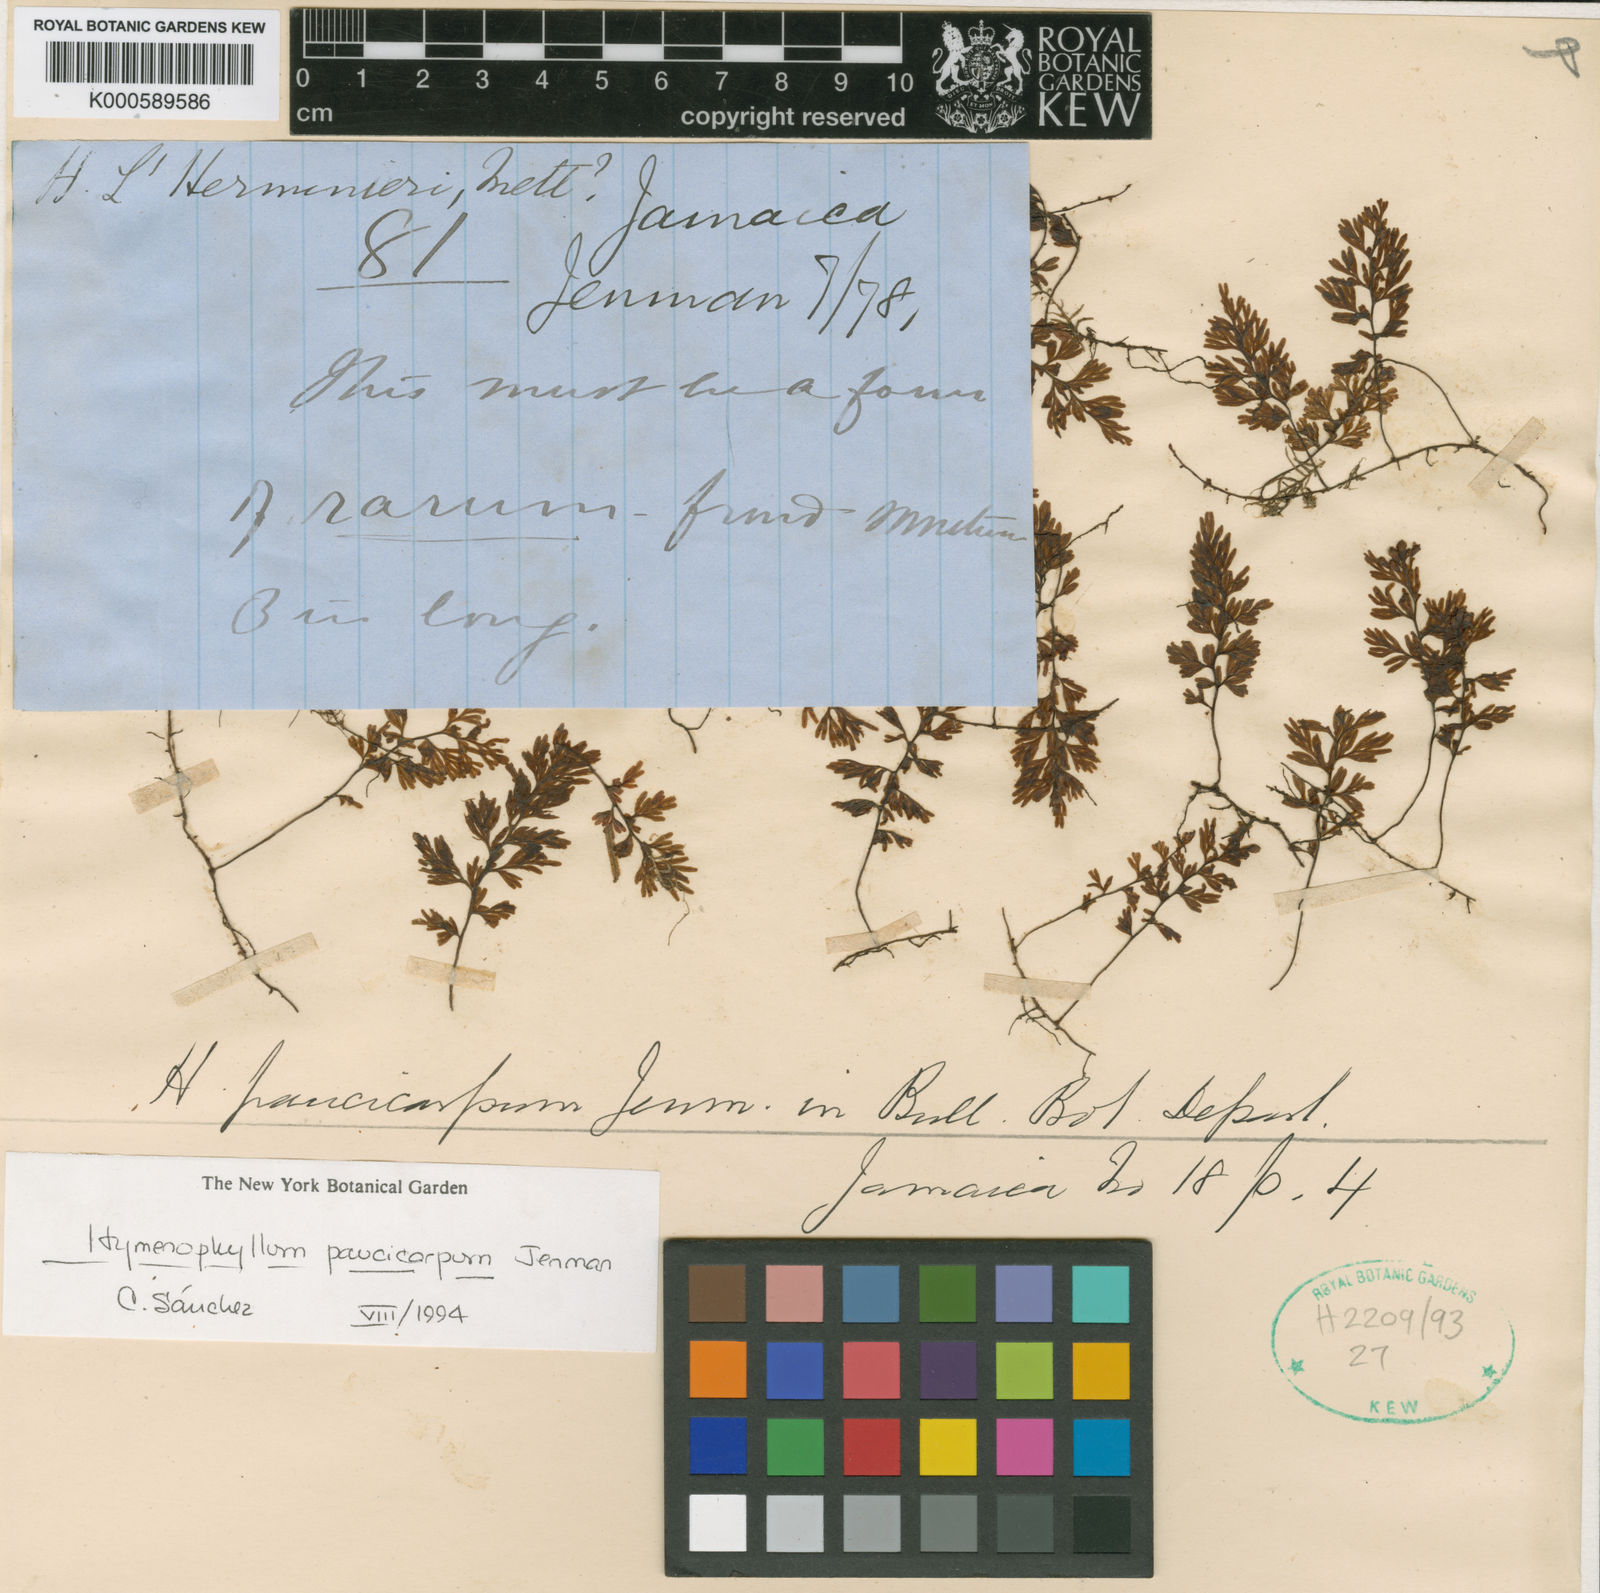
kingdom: Plantae
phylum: Tracheophyta
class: Polypodiopsida
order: Hymenophyllales
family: Hymenophyllaceae
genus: Hymenophyllum
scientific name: Hymenophyllum paucicarpum
